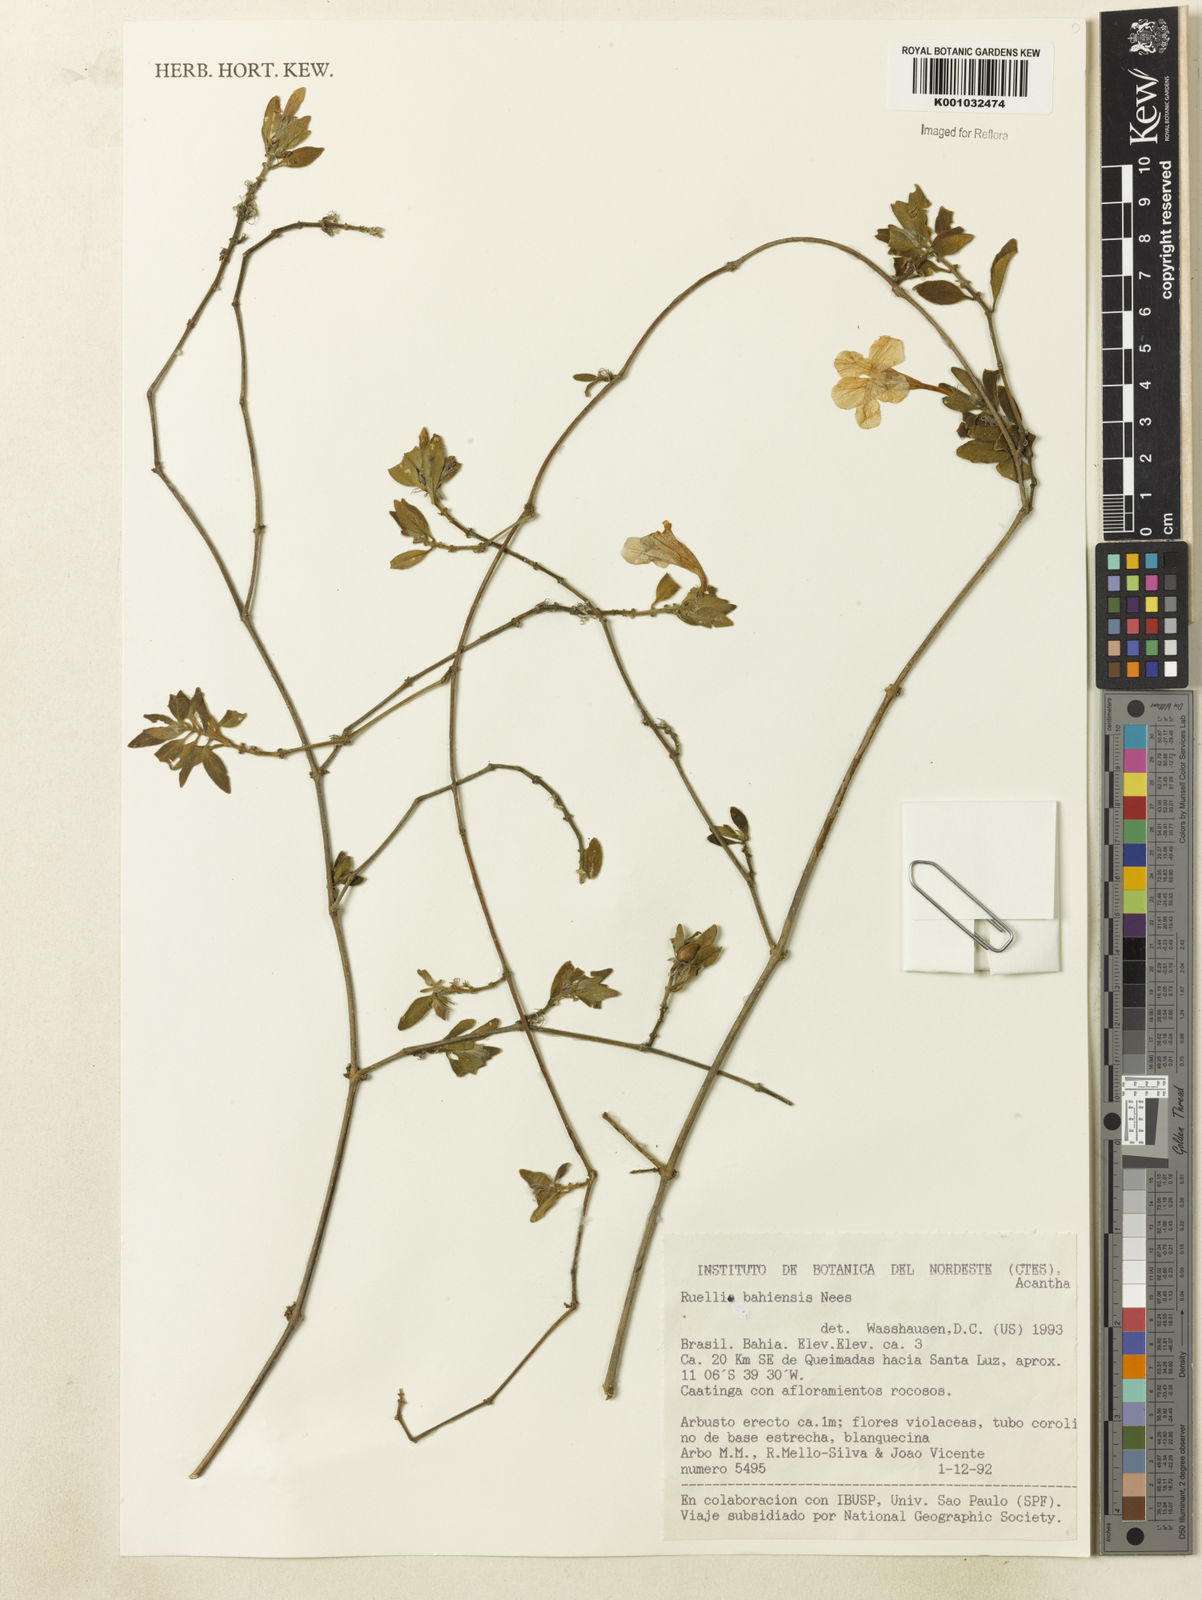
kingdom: Plantae
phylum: Tracheophyta
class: Magnoliopsida
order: Lamiales
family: Acanthaceae
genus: Ruellia
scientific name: Ruellia bahiensis
